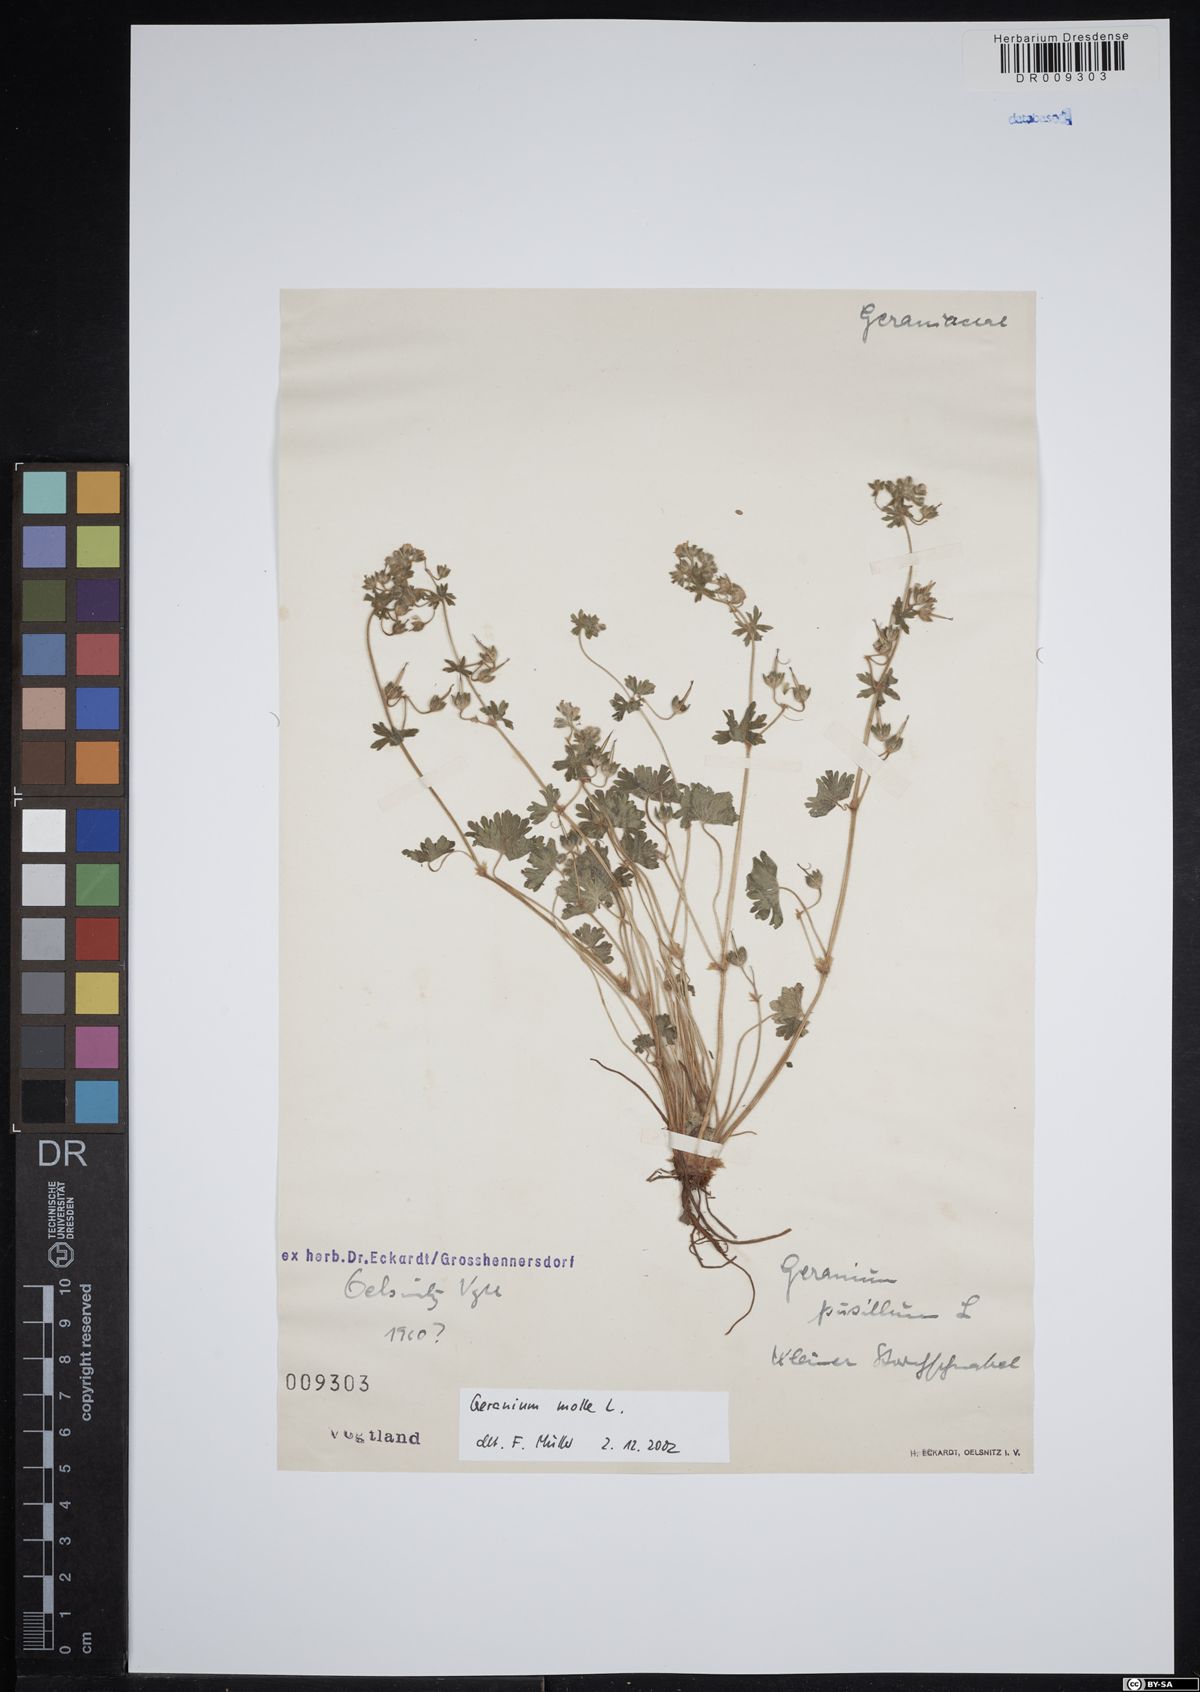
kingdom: Plantae
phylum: Tracheophyta
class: Magnoliopsida
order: Geraniales
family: Geraniaceae
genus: Geranium
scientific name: Geranium molle
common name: Dove's-foot crane's-bill
